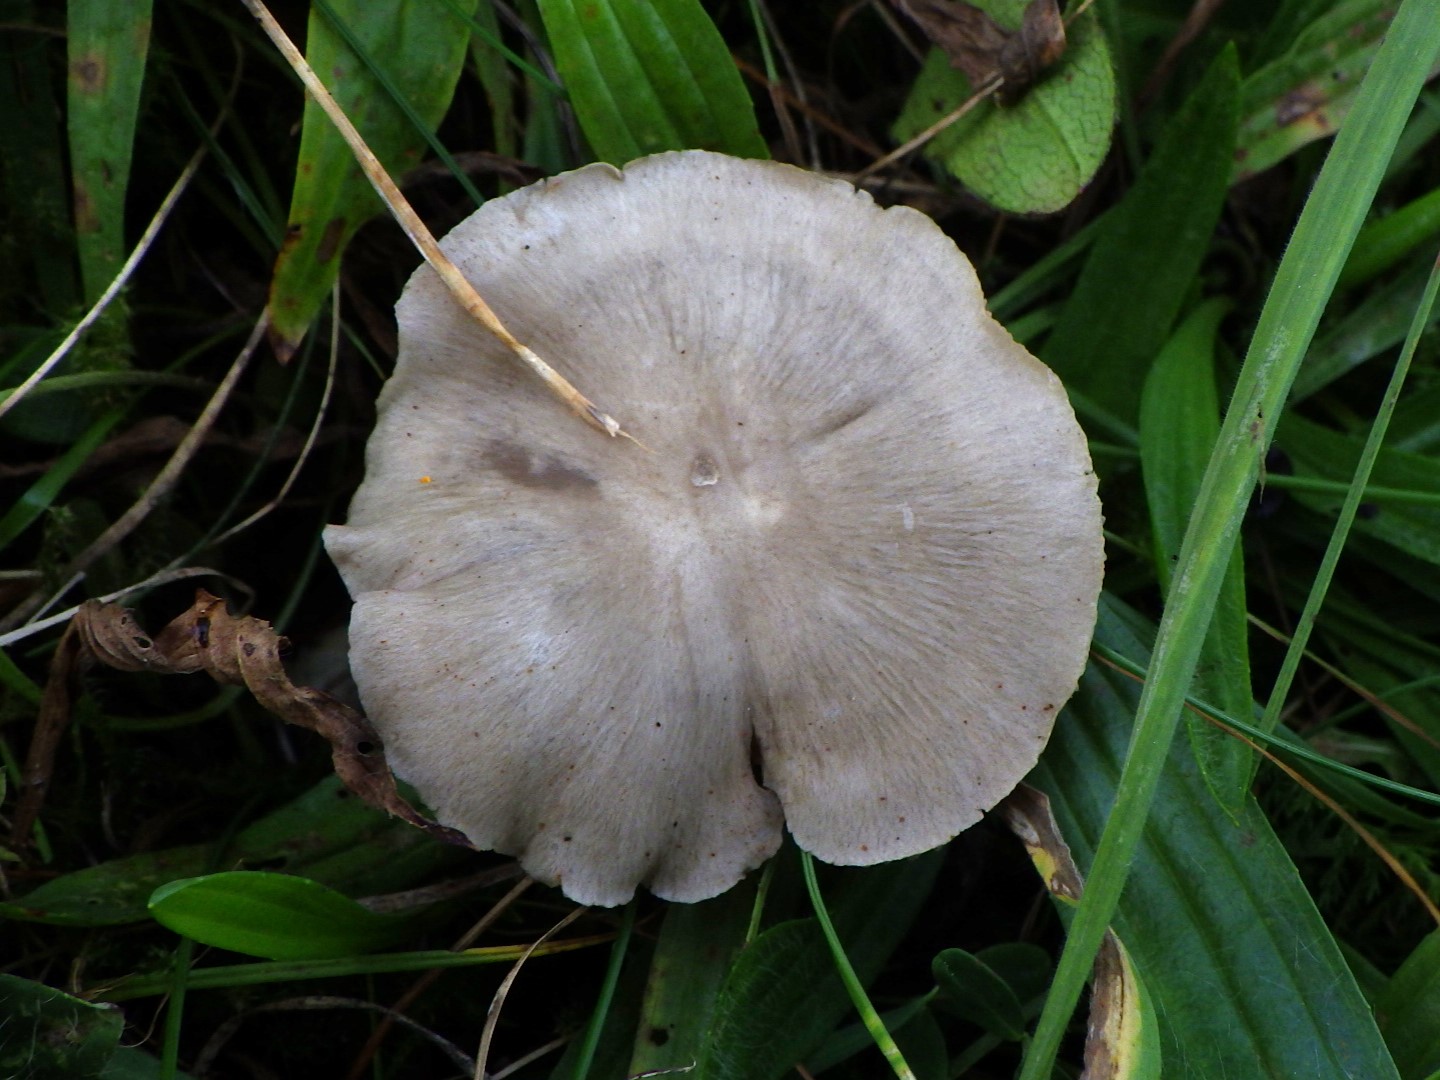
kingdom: Fungi
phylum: Basidiomycota
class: Agaricomycetes
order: Agaricales
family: Entolomataceae
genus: Entoloma
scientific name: Entoloma prunuloides
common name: mel-rødblad
